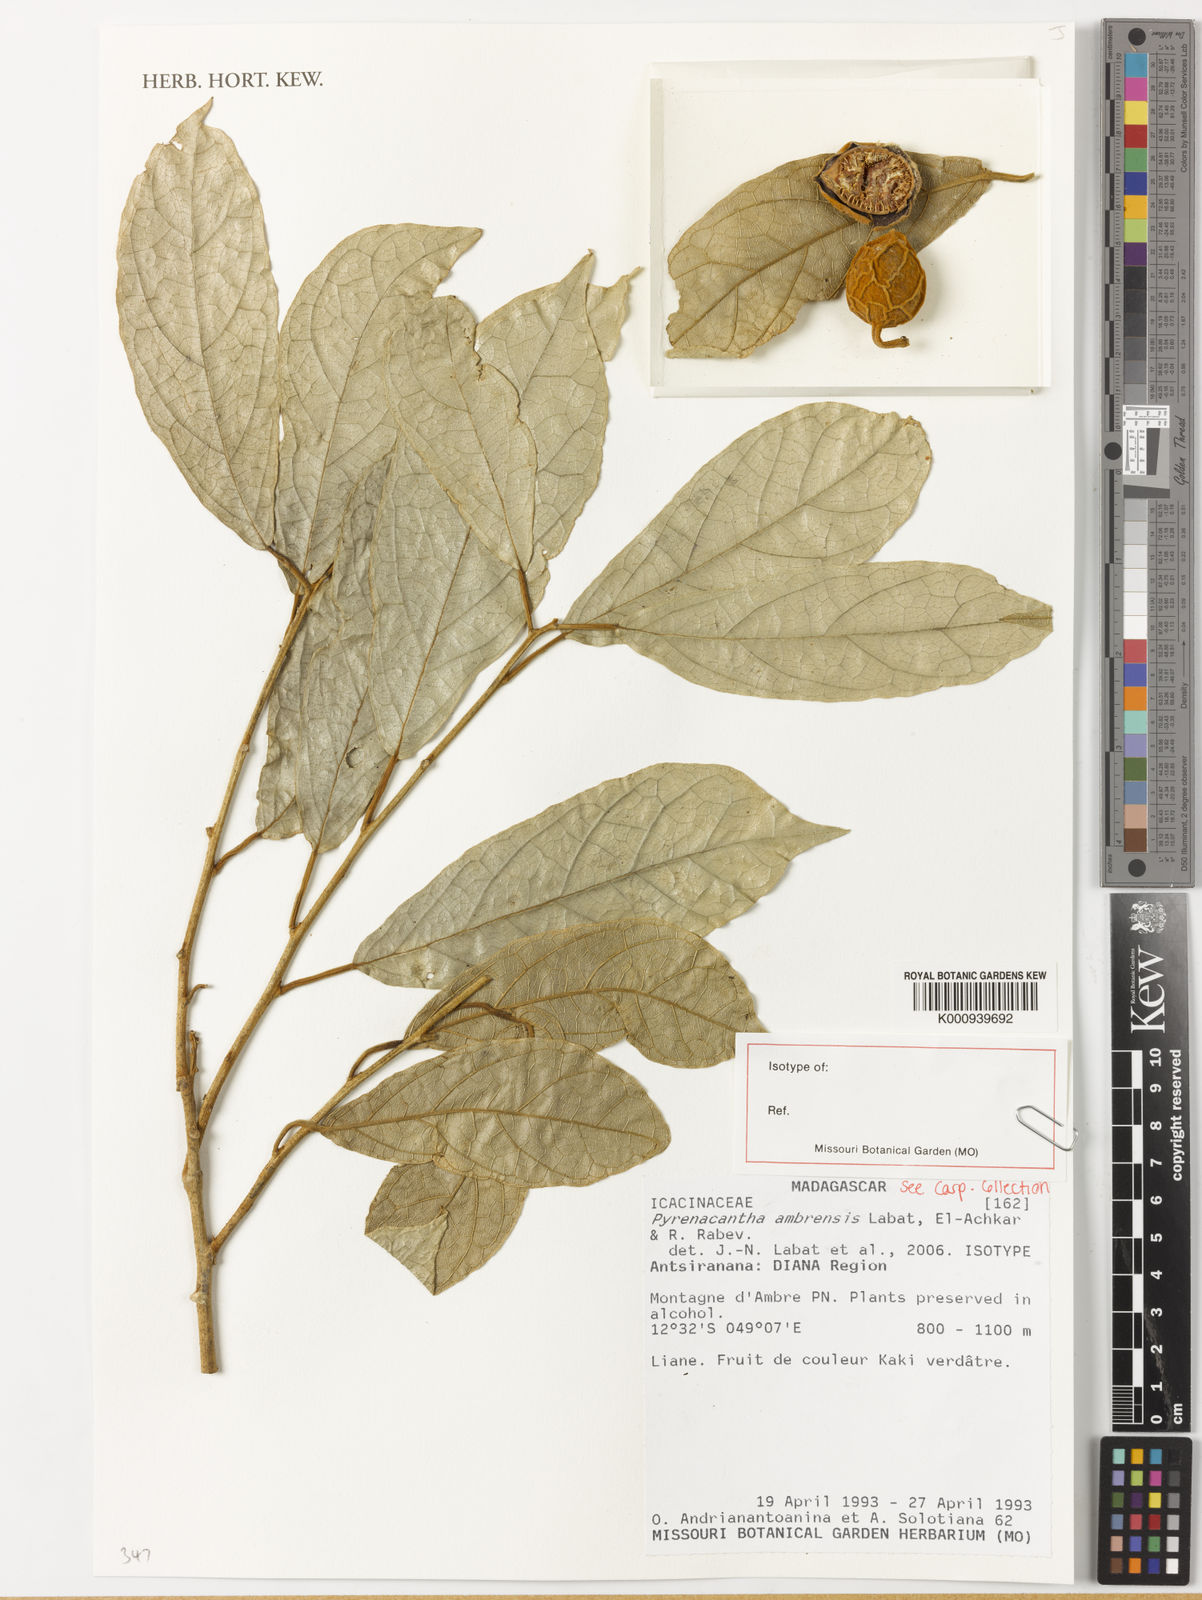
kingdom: Plantae
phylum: Tracheophyta
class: Magnoliopsida
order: Icacinales
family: Icacinaceae
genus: Pyrenacantha
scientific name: Pyrenacantha ambrensis
